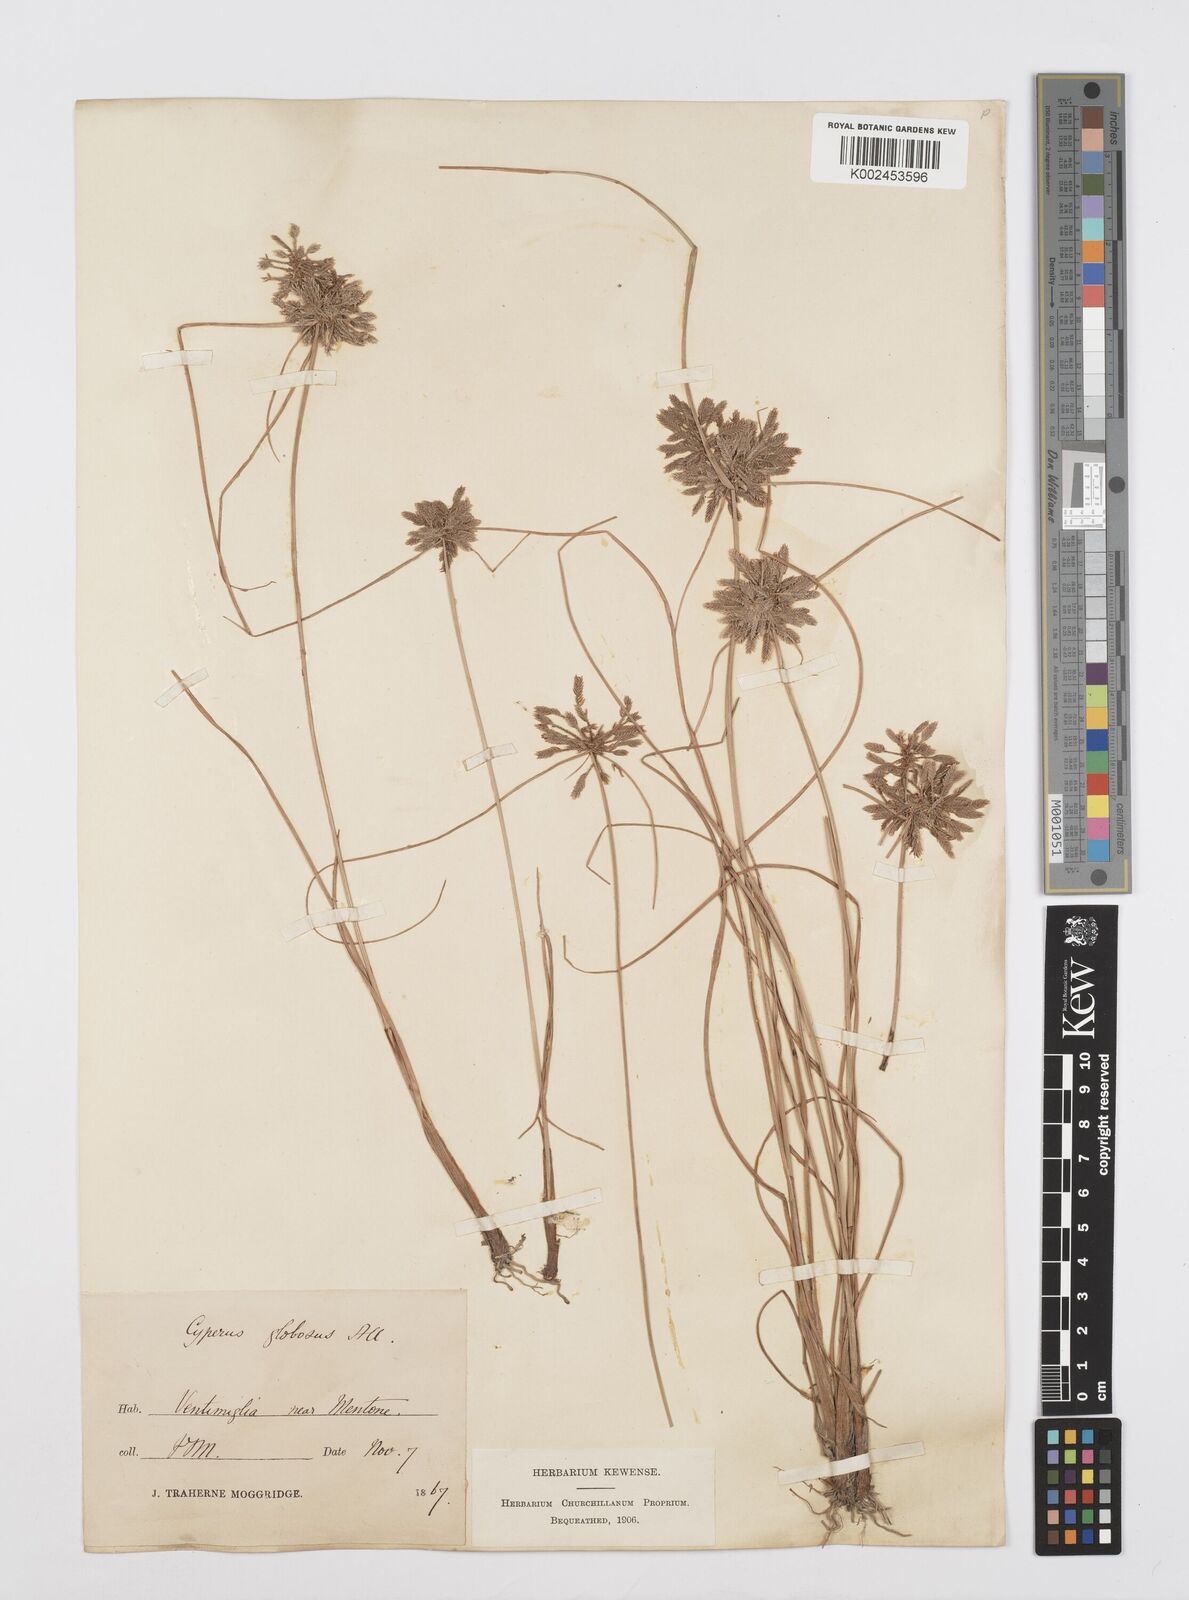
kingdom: Plantae
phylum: Tracheophyta
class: Liliopsida
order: Poales
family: Cyperaceae
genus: Cyperus
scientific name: Cyperus flavidus
